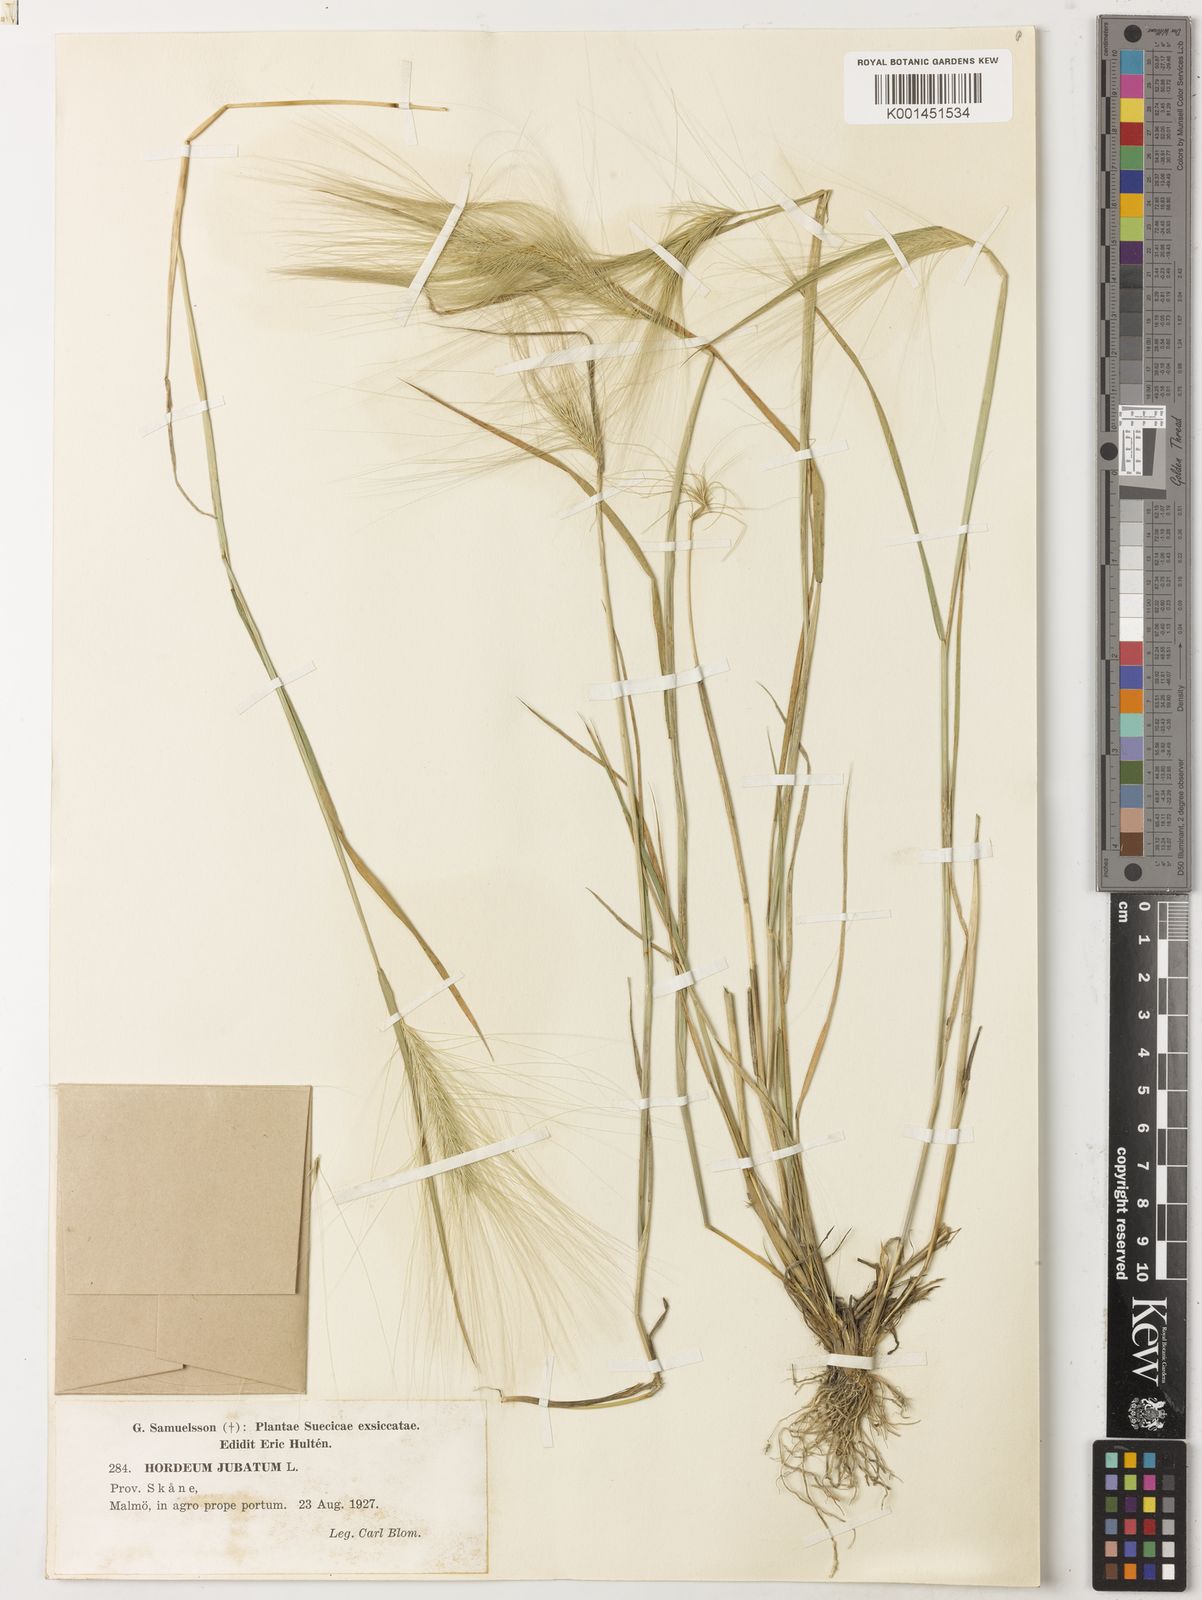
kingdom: Plantae
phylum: Tracheophyta
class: Liliopsida
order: Poales
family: Poaceae
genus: Hordeum
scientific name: Hordeum jubatum
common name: Foxtail barley
